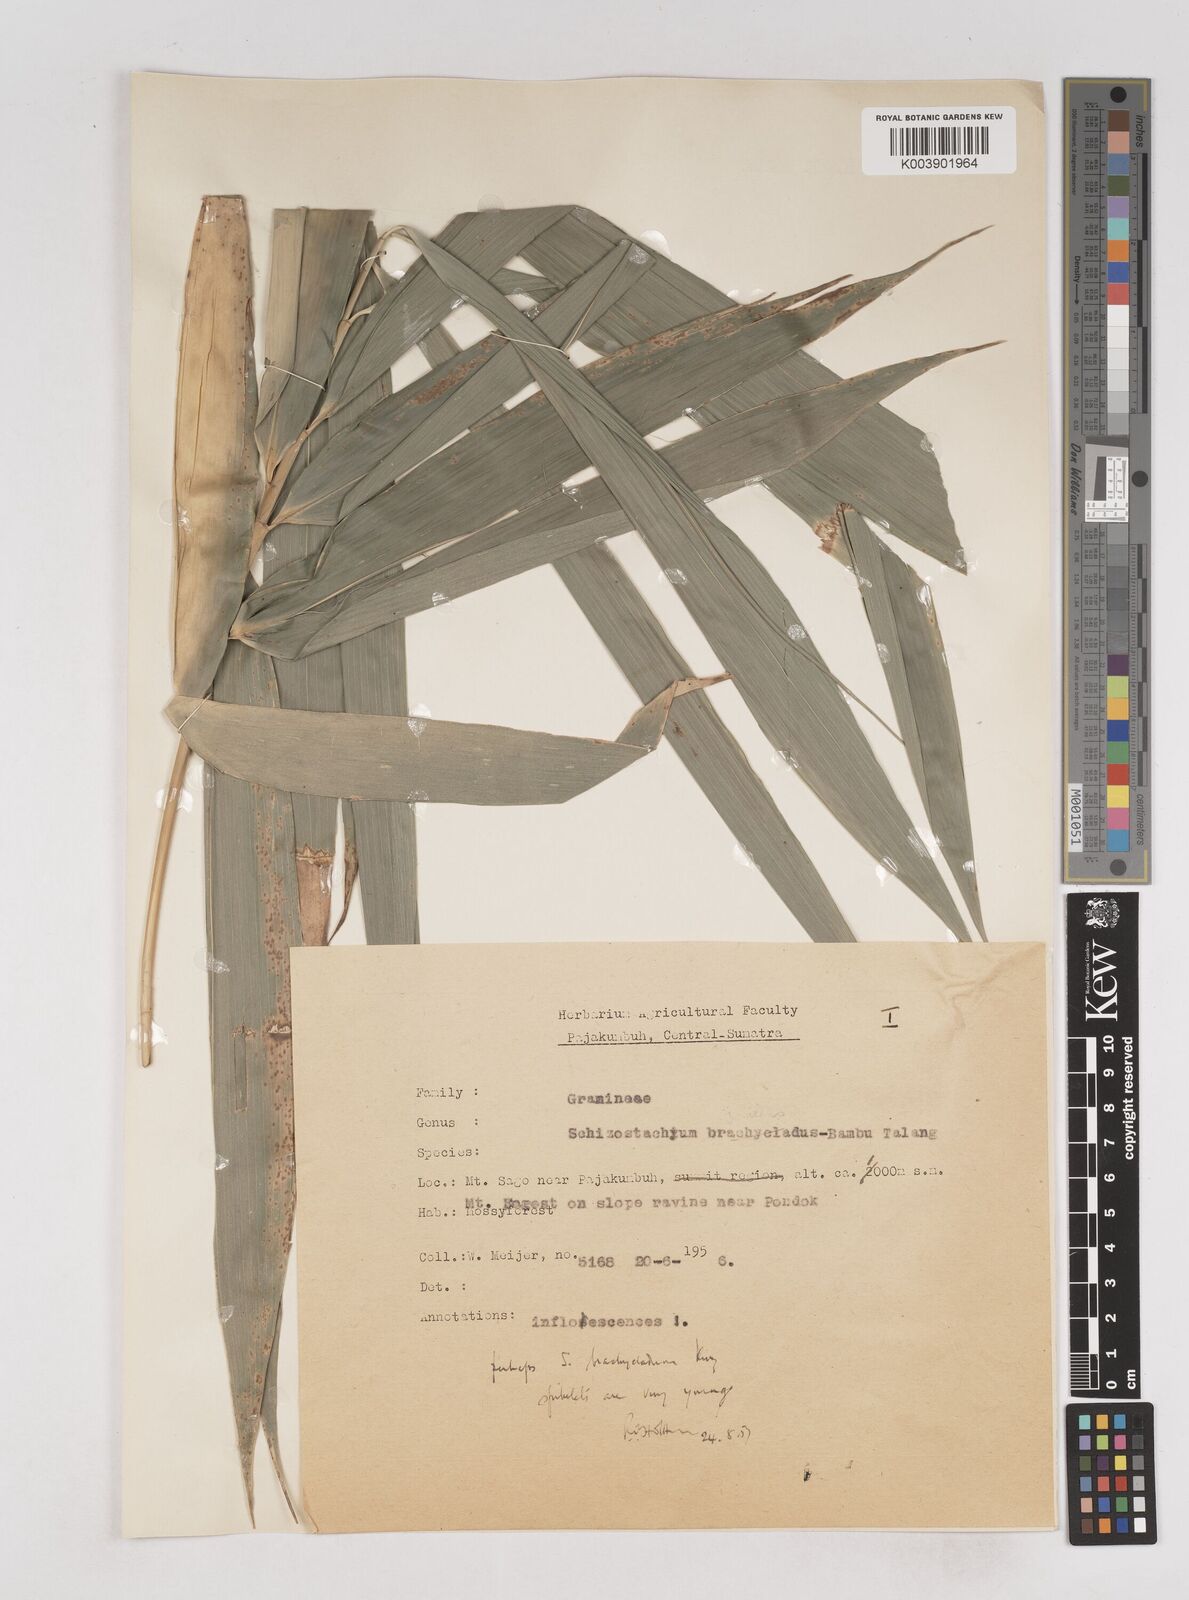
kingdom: Plantae
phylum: Tracheophyta
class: Liliopsida
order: Poales
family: Poaceae
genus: Schizostachyum
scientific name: Schizostachyum brachycladum
